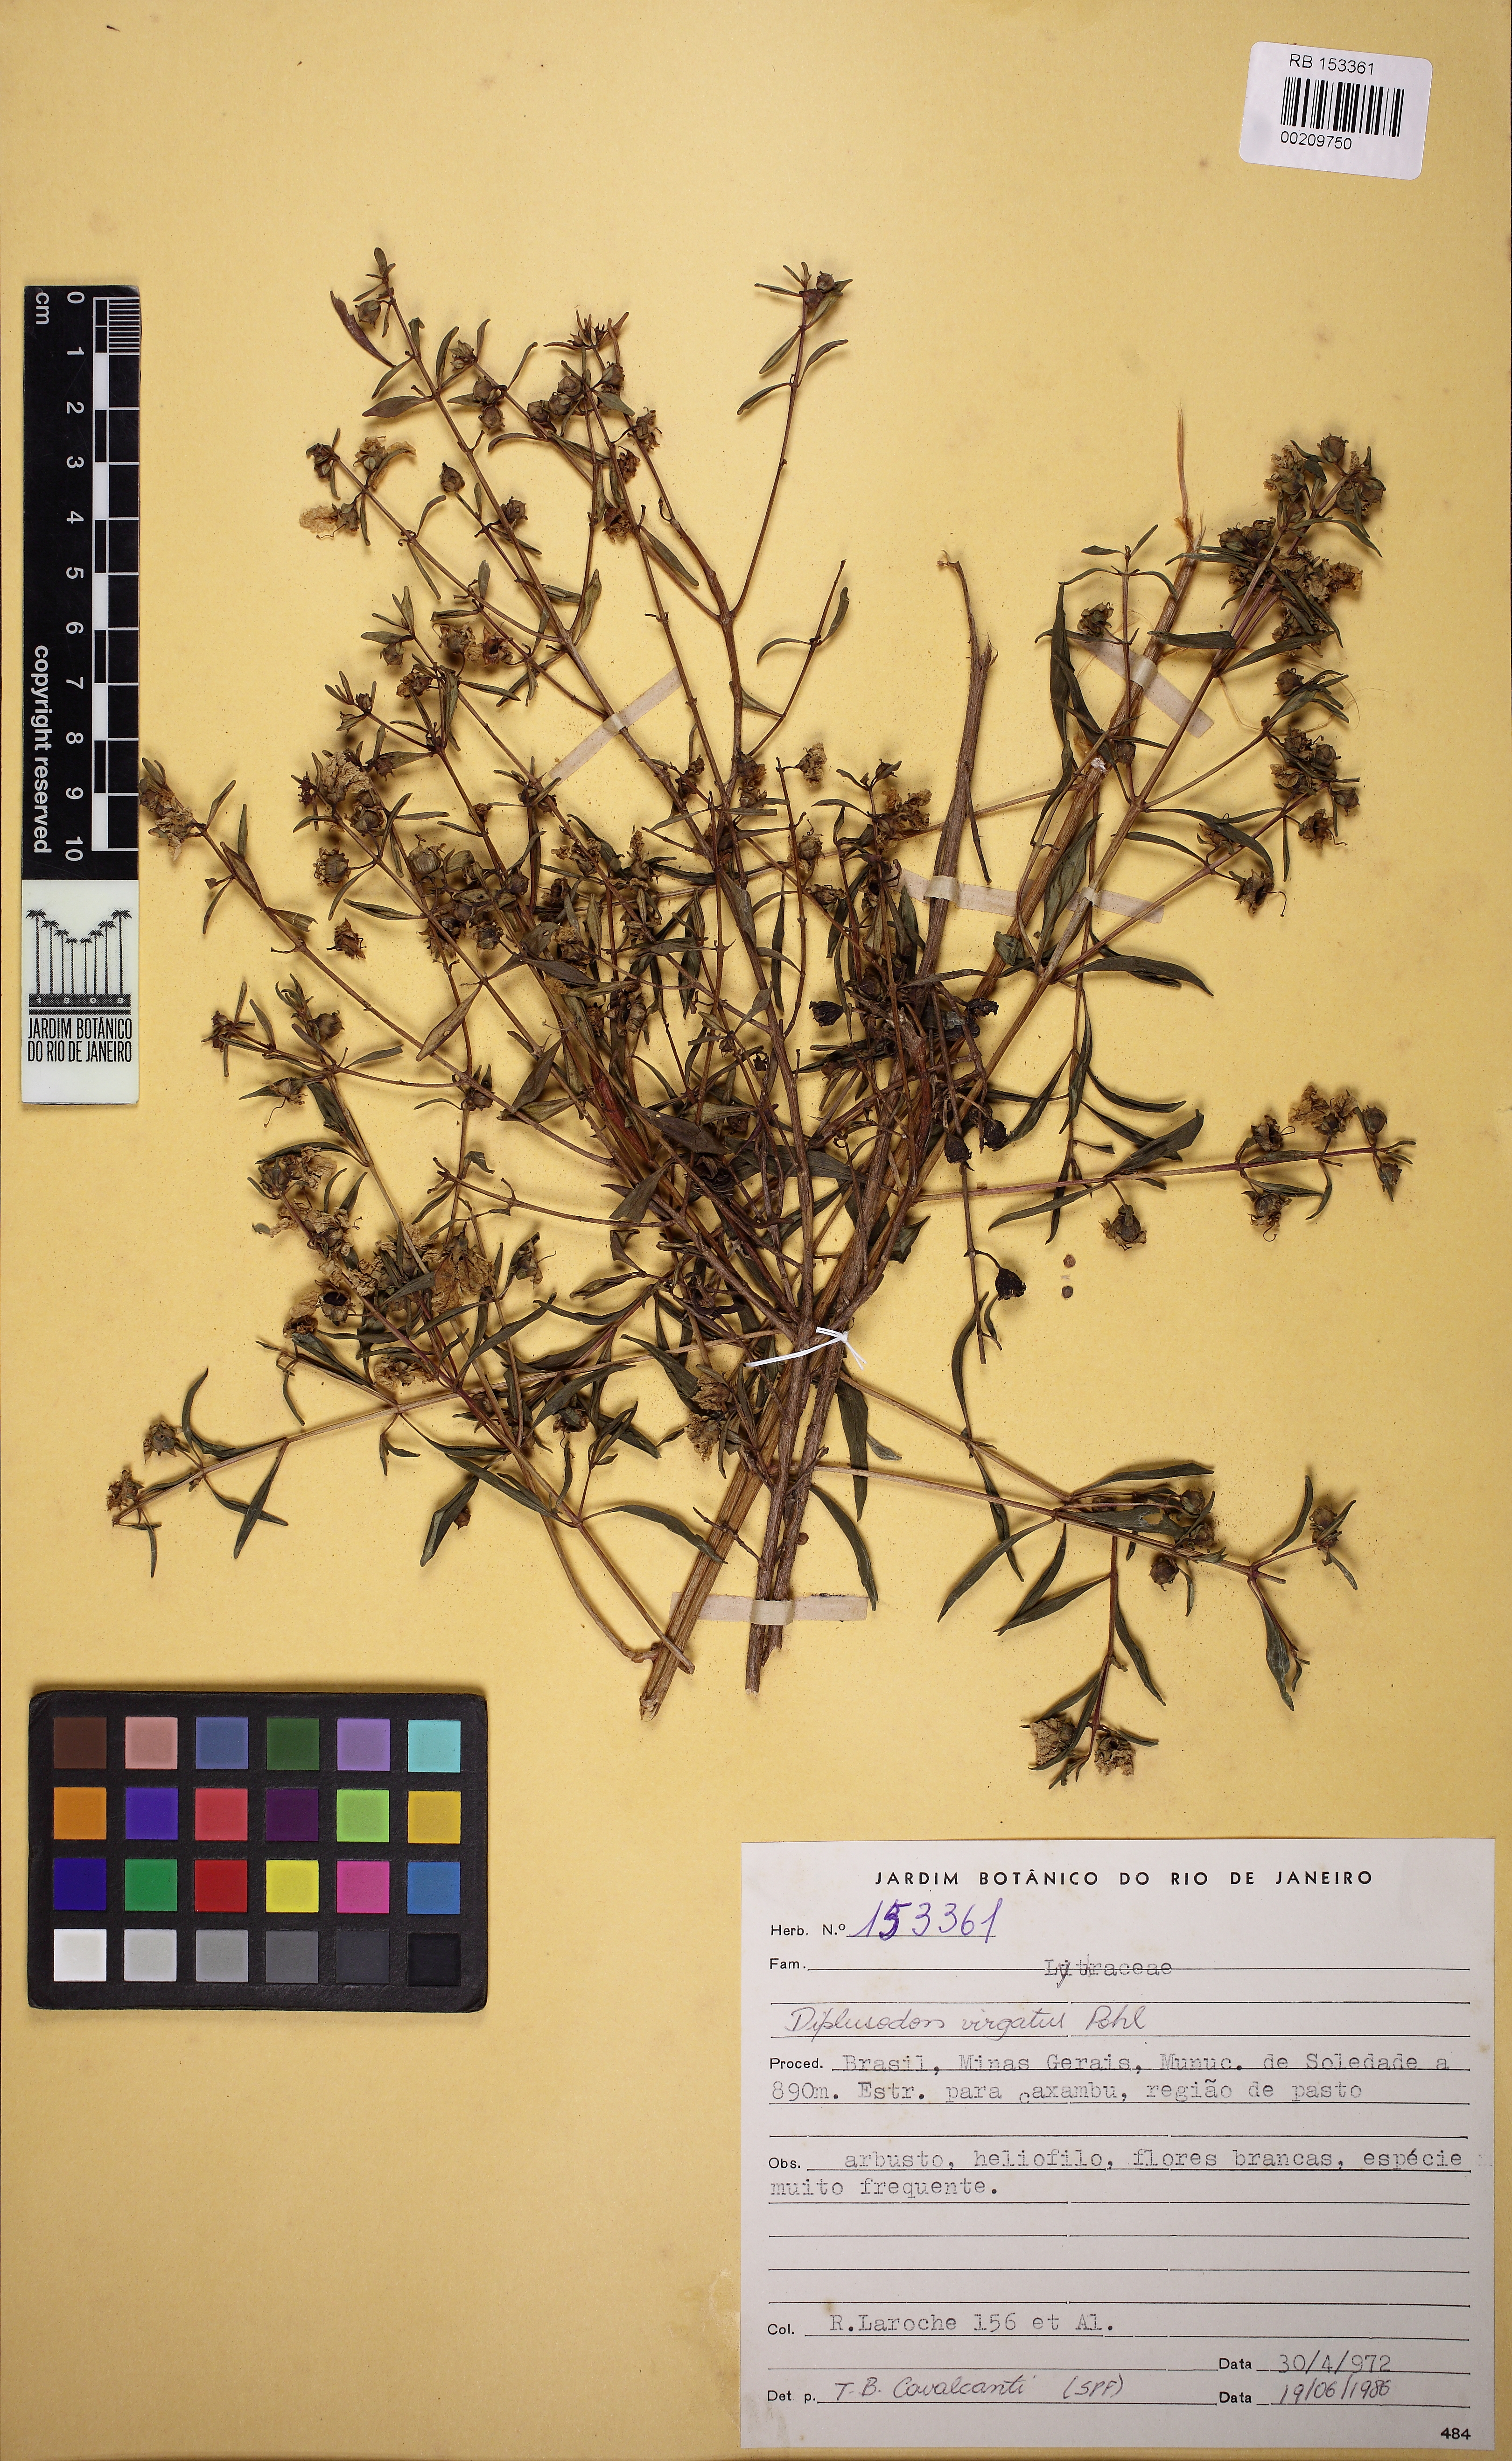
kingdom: Plantae
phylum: Tracheophyta
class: Magnoliopsida
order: Myrtales
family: Lythraceae
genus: Diplusodon
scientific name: Diplusodon virgatus
